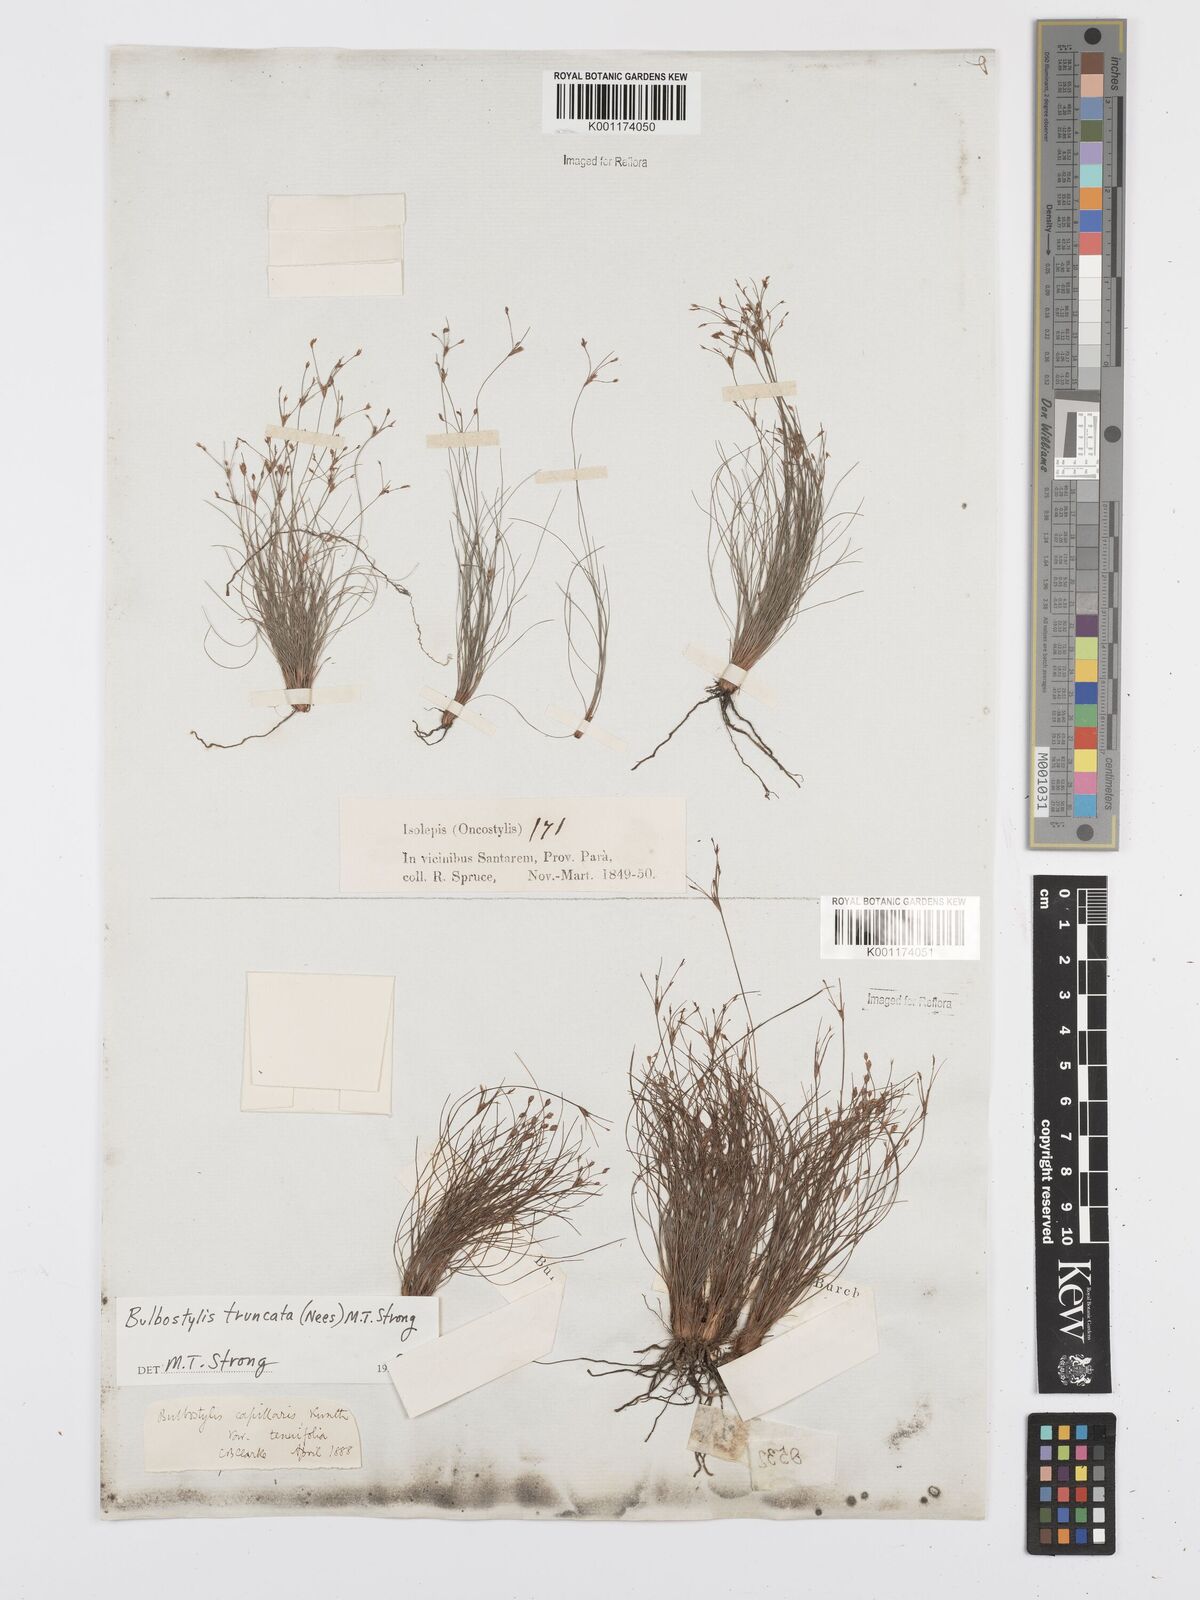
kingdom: Plantae
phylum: Tracheophyta
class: Liliopsida
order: Poales
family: Cyperaceae
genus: Bulbostylis
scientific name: Bulbostylis truncata
